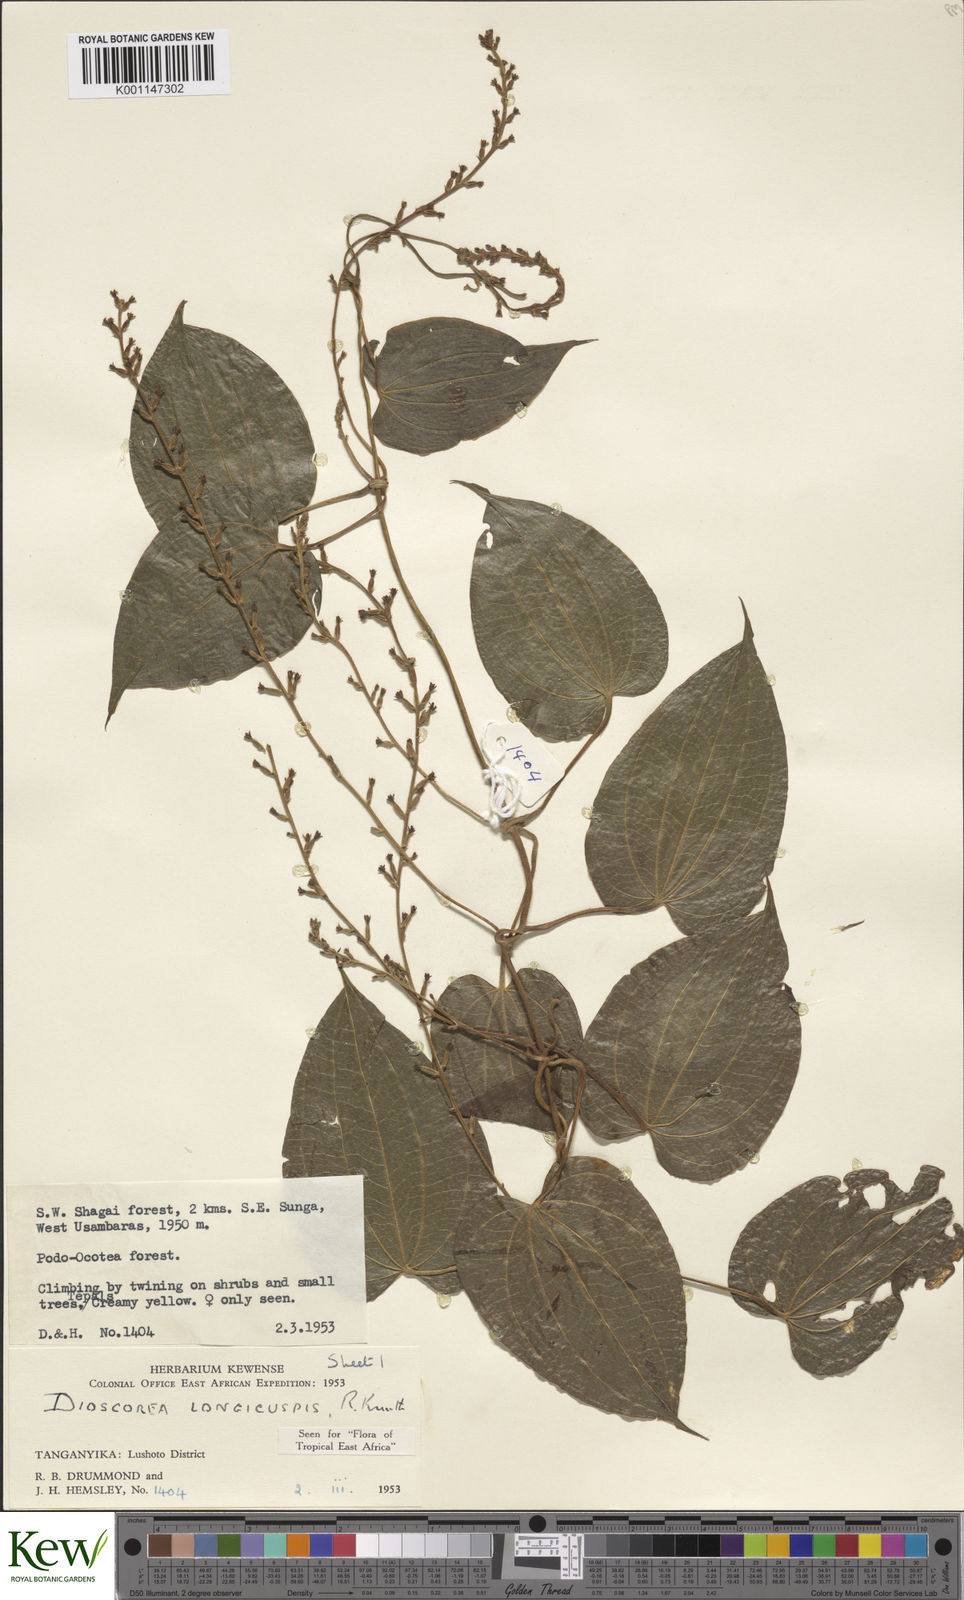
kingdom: Plantae
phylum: Tracheophyta
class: Liliopsida
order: Dioscoreales
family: Dioscoreaceae
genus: Dioscorea
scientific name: Dioscorea longicuspis
